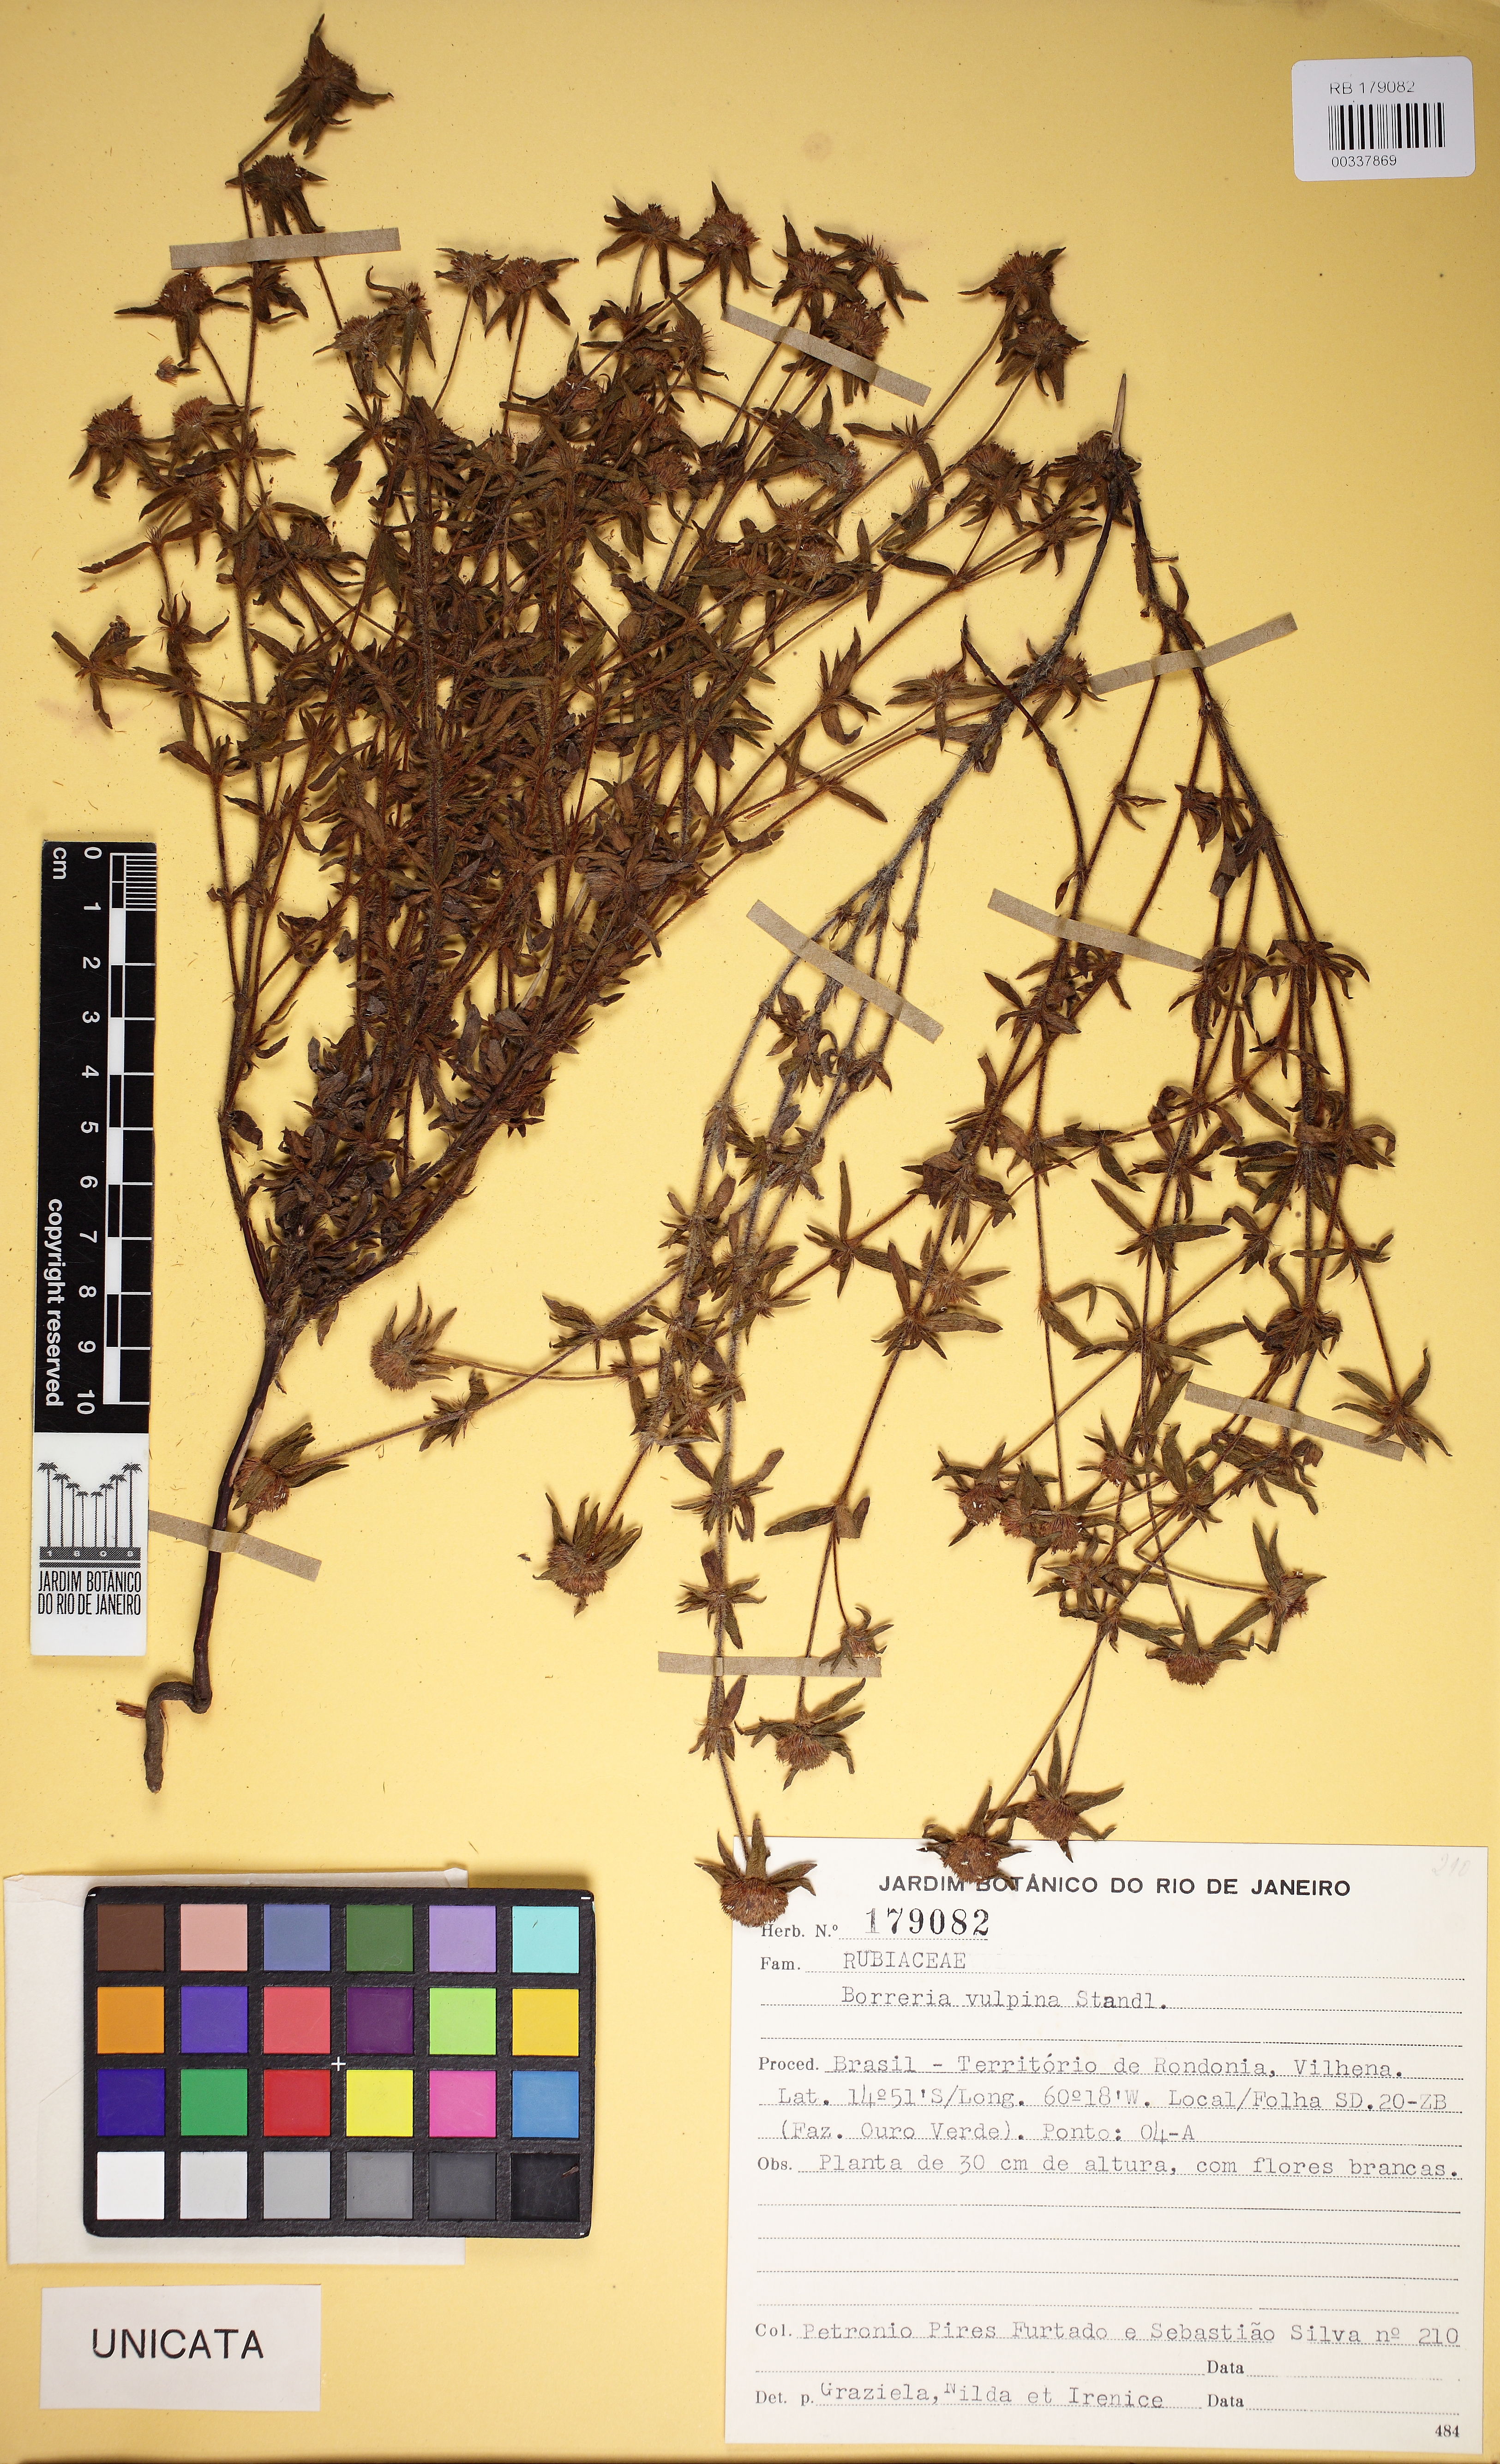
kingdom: Plantae
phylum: Tracheophyta
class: Magnoliopsida
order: Gentianales
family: Rubiaceae
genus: Spermacoce
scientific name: Spermacoce wunschmannii
